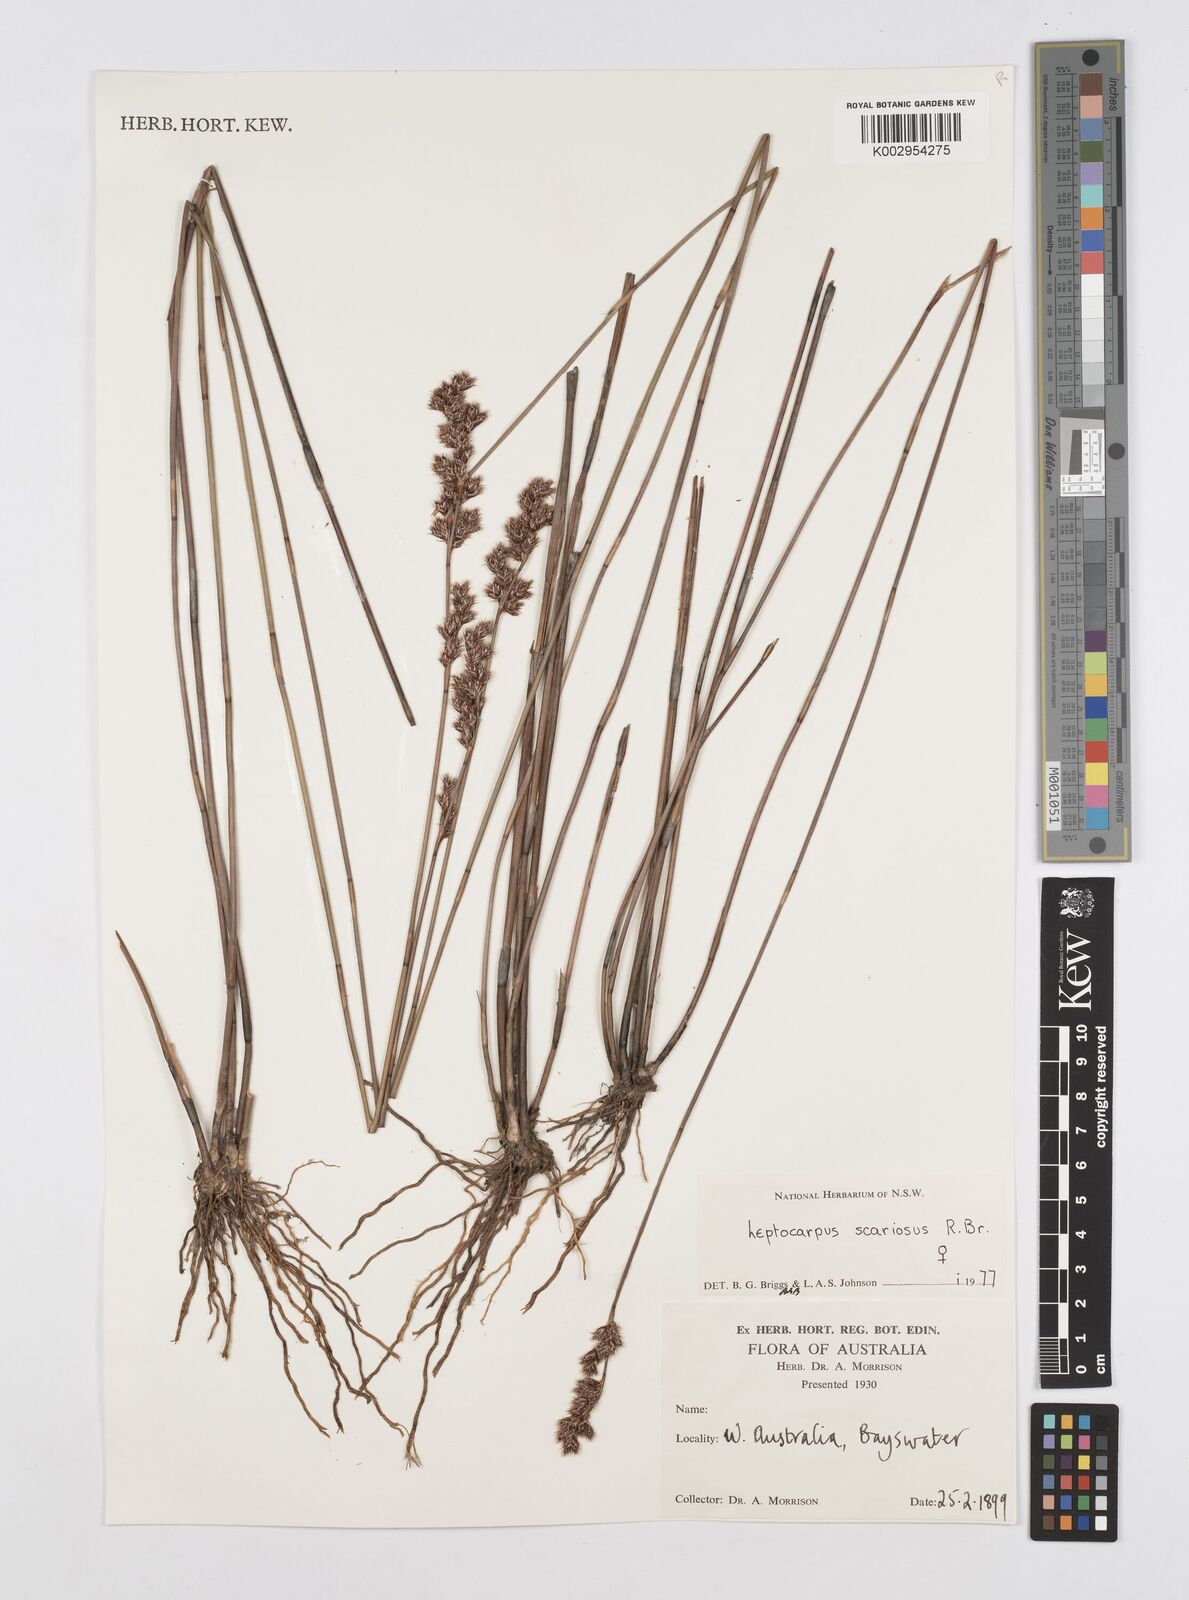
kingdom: Plantae
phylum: Tracheophyta
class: Liliopsida
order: Poales
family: Restionaceae
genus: Leptocarpus
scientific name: Leptocarpus scariosus
